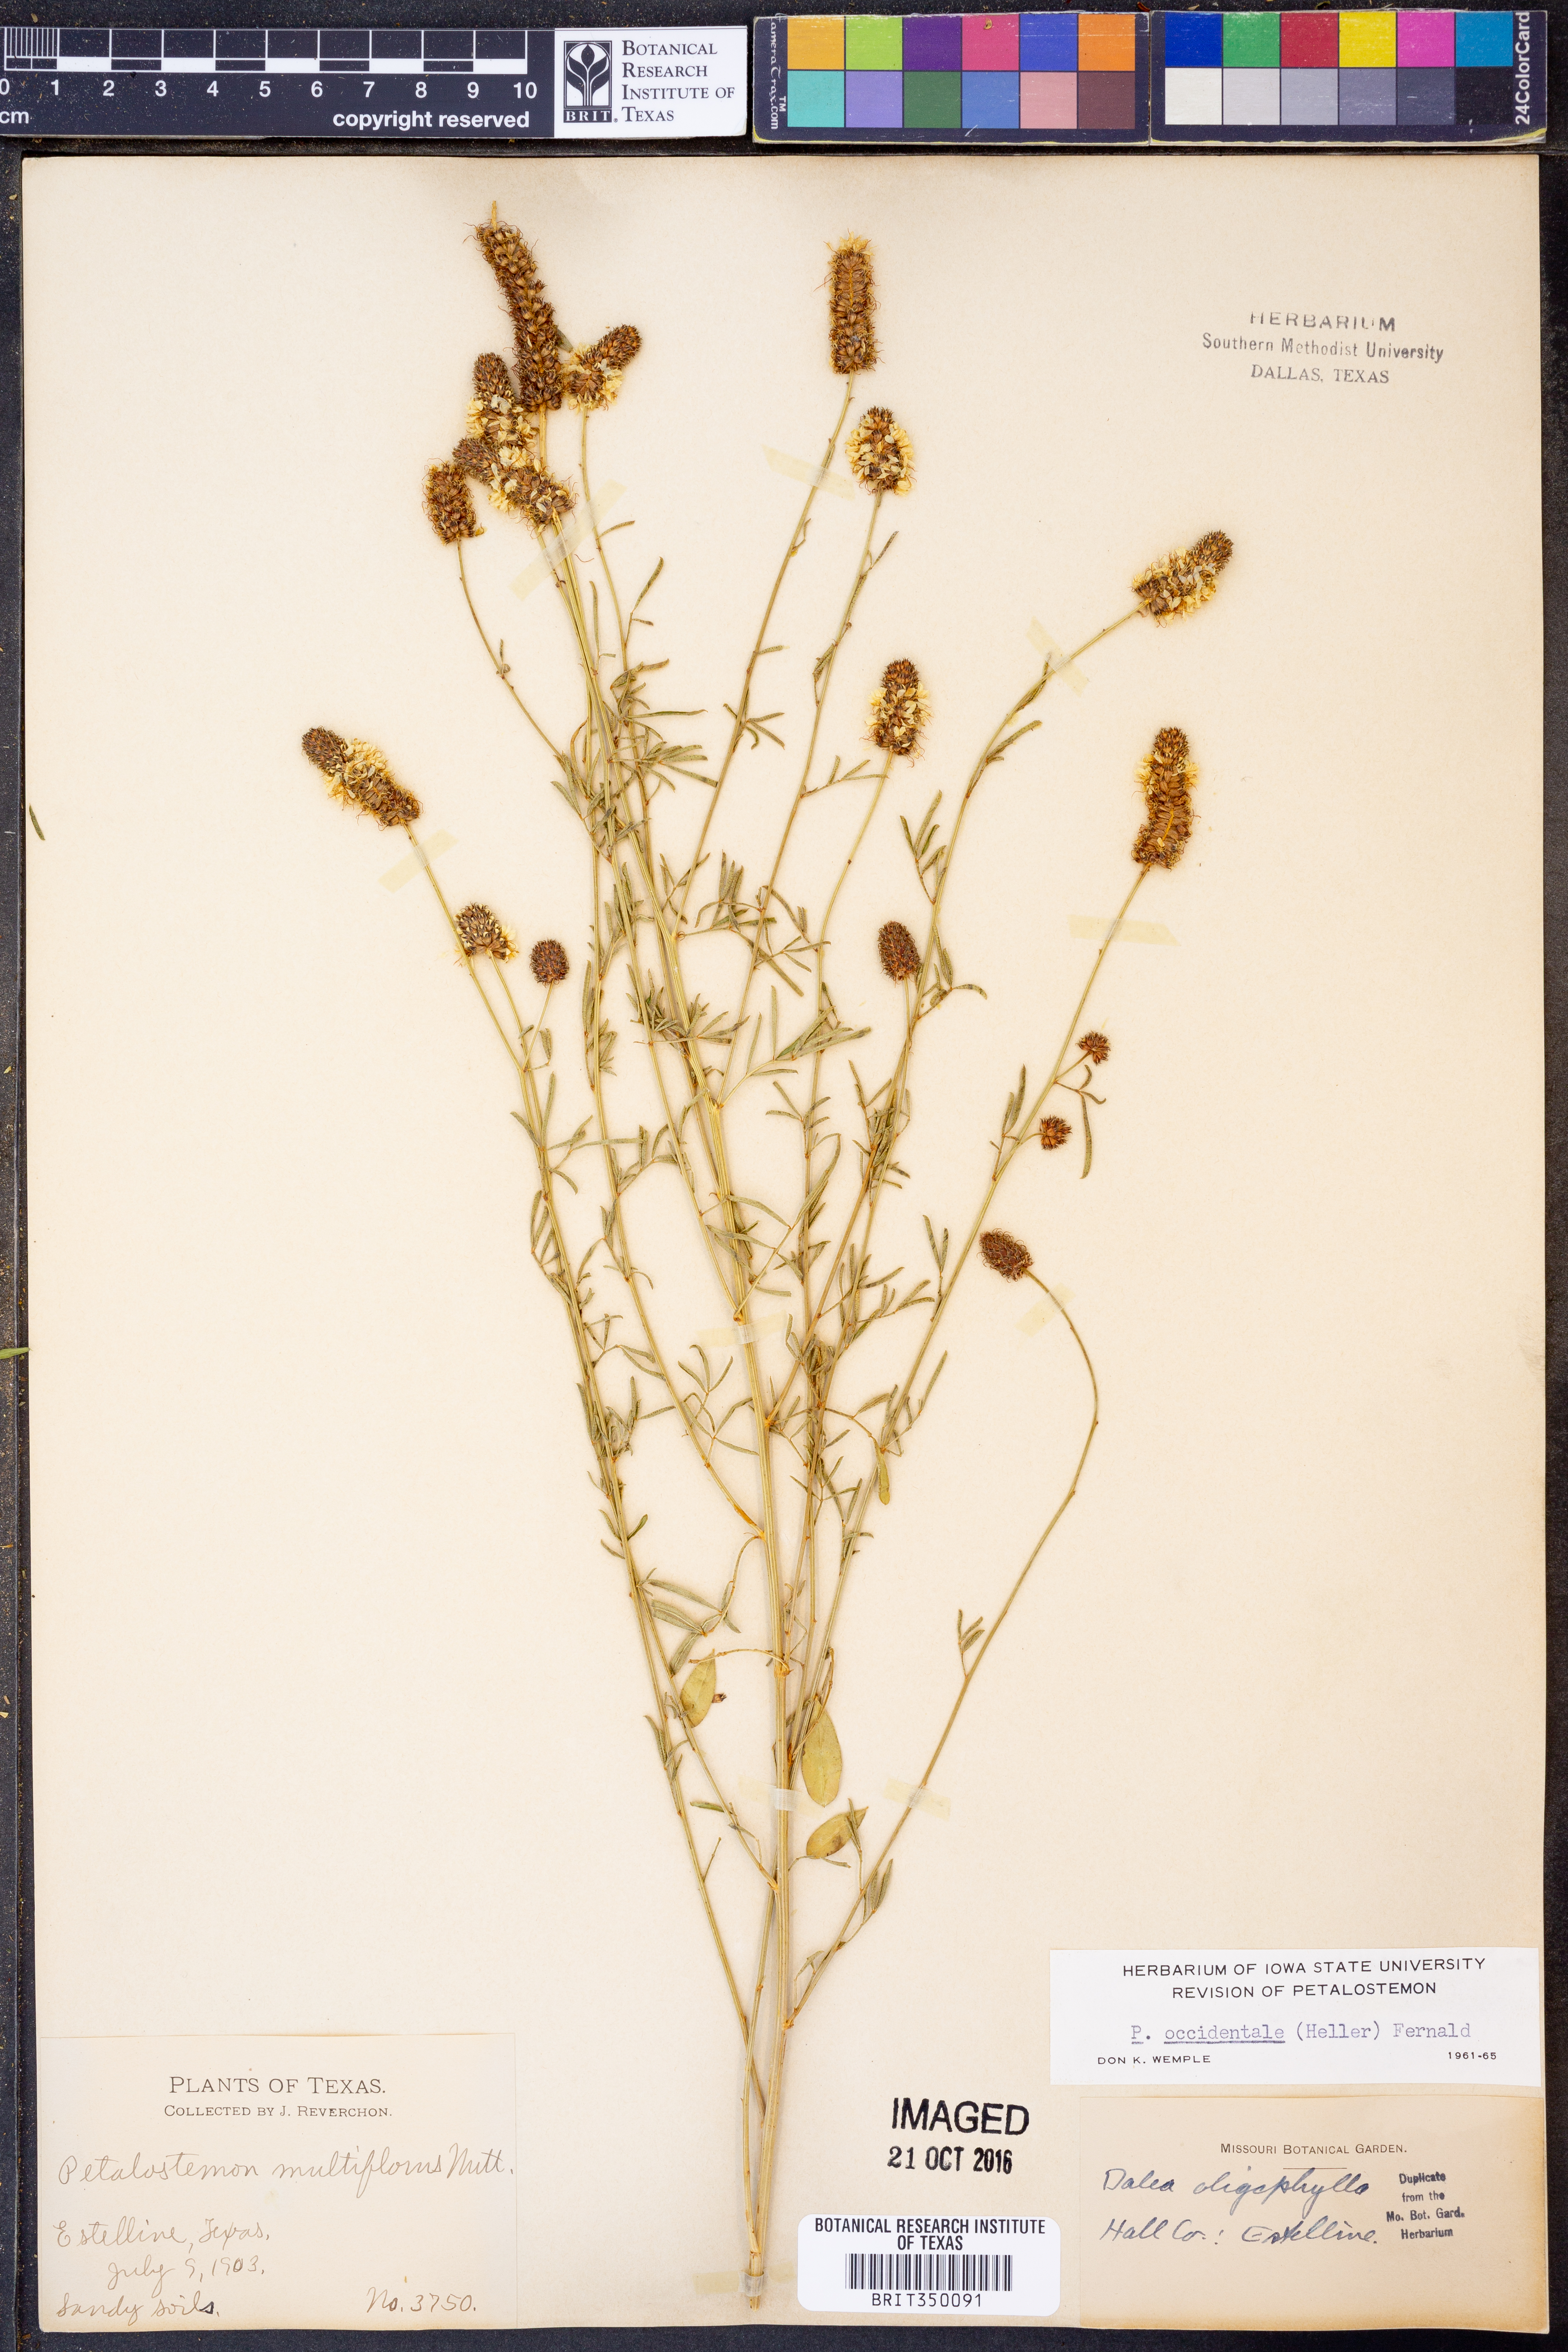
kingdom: Plantae
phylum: Tracheophyta
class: Magnoliopsida
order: Fabales
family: Fabaceae
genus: Dalea
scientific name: Dalea candida
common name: White prairie-clover
